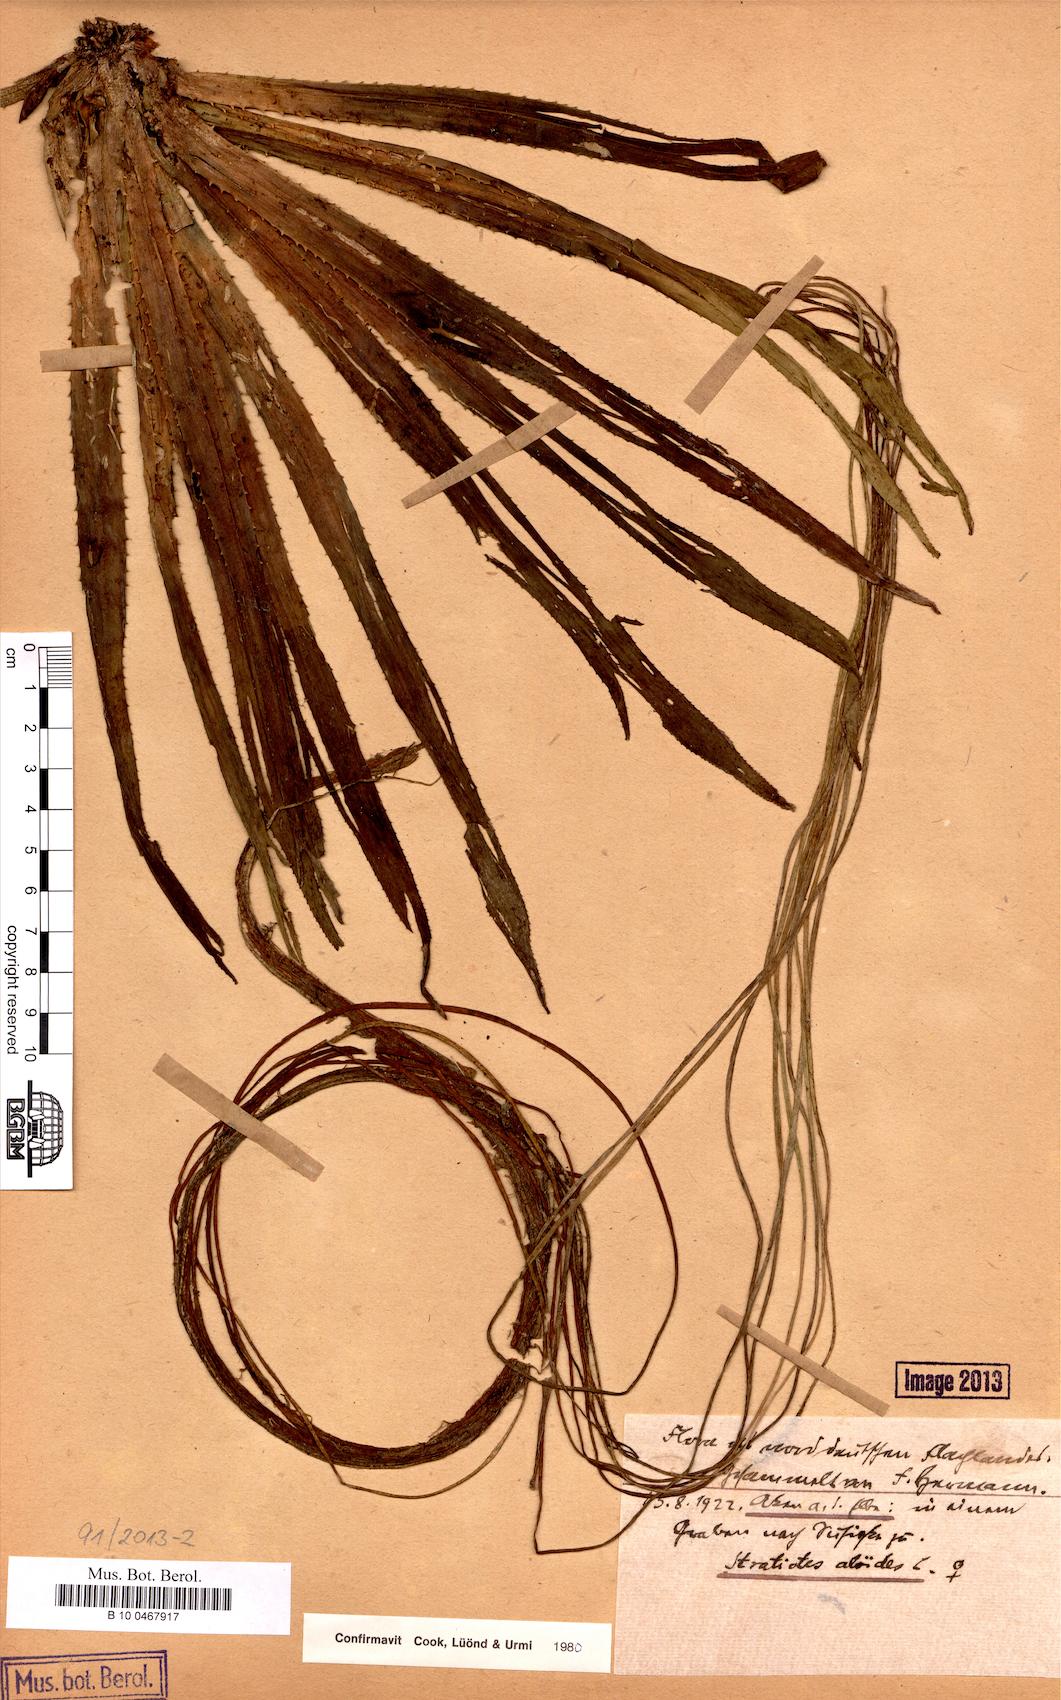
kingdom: Plantae
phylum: Tracheophyta
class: Liliopsida
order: Alismatales
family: Hydrocharitaceae
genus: Stratiotes
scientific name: Stratiotes aloides
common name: Water-soldier
